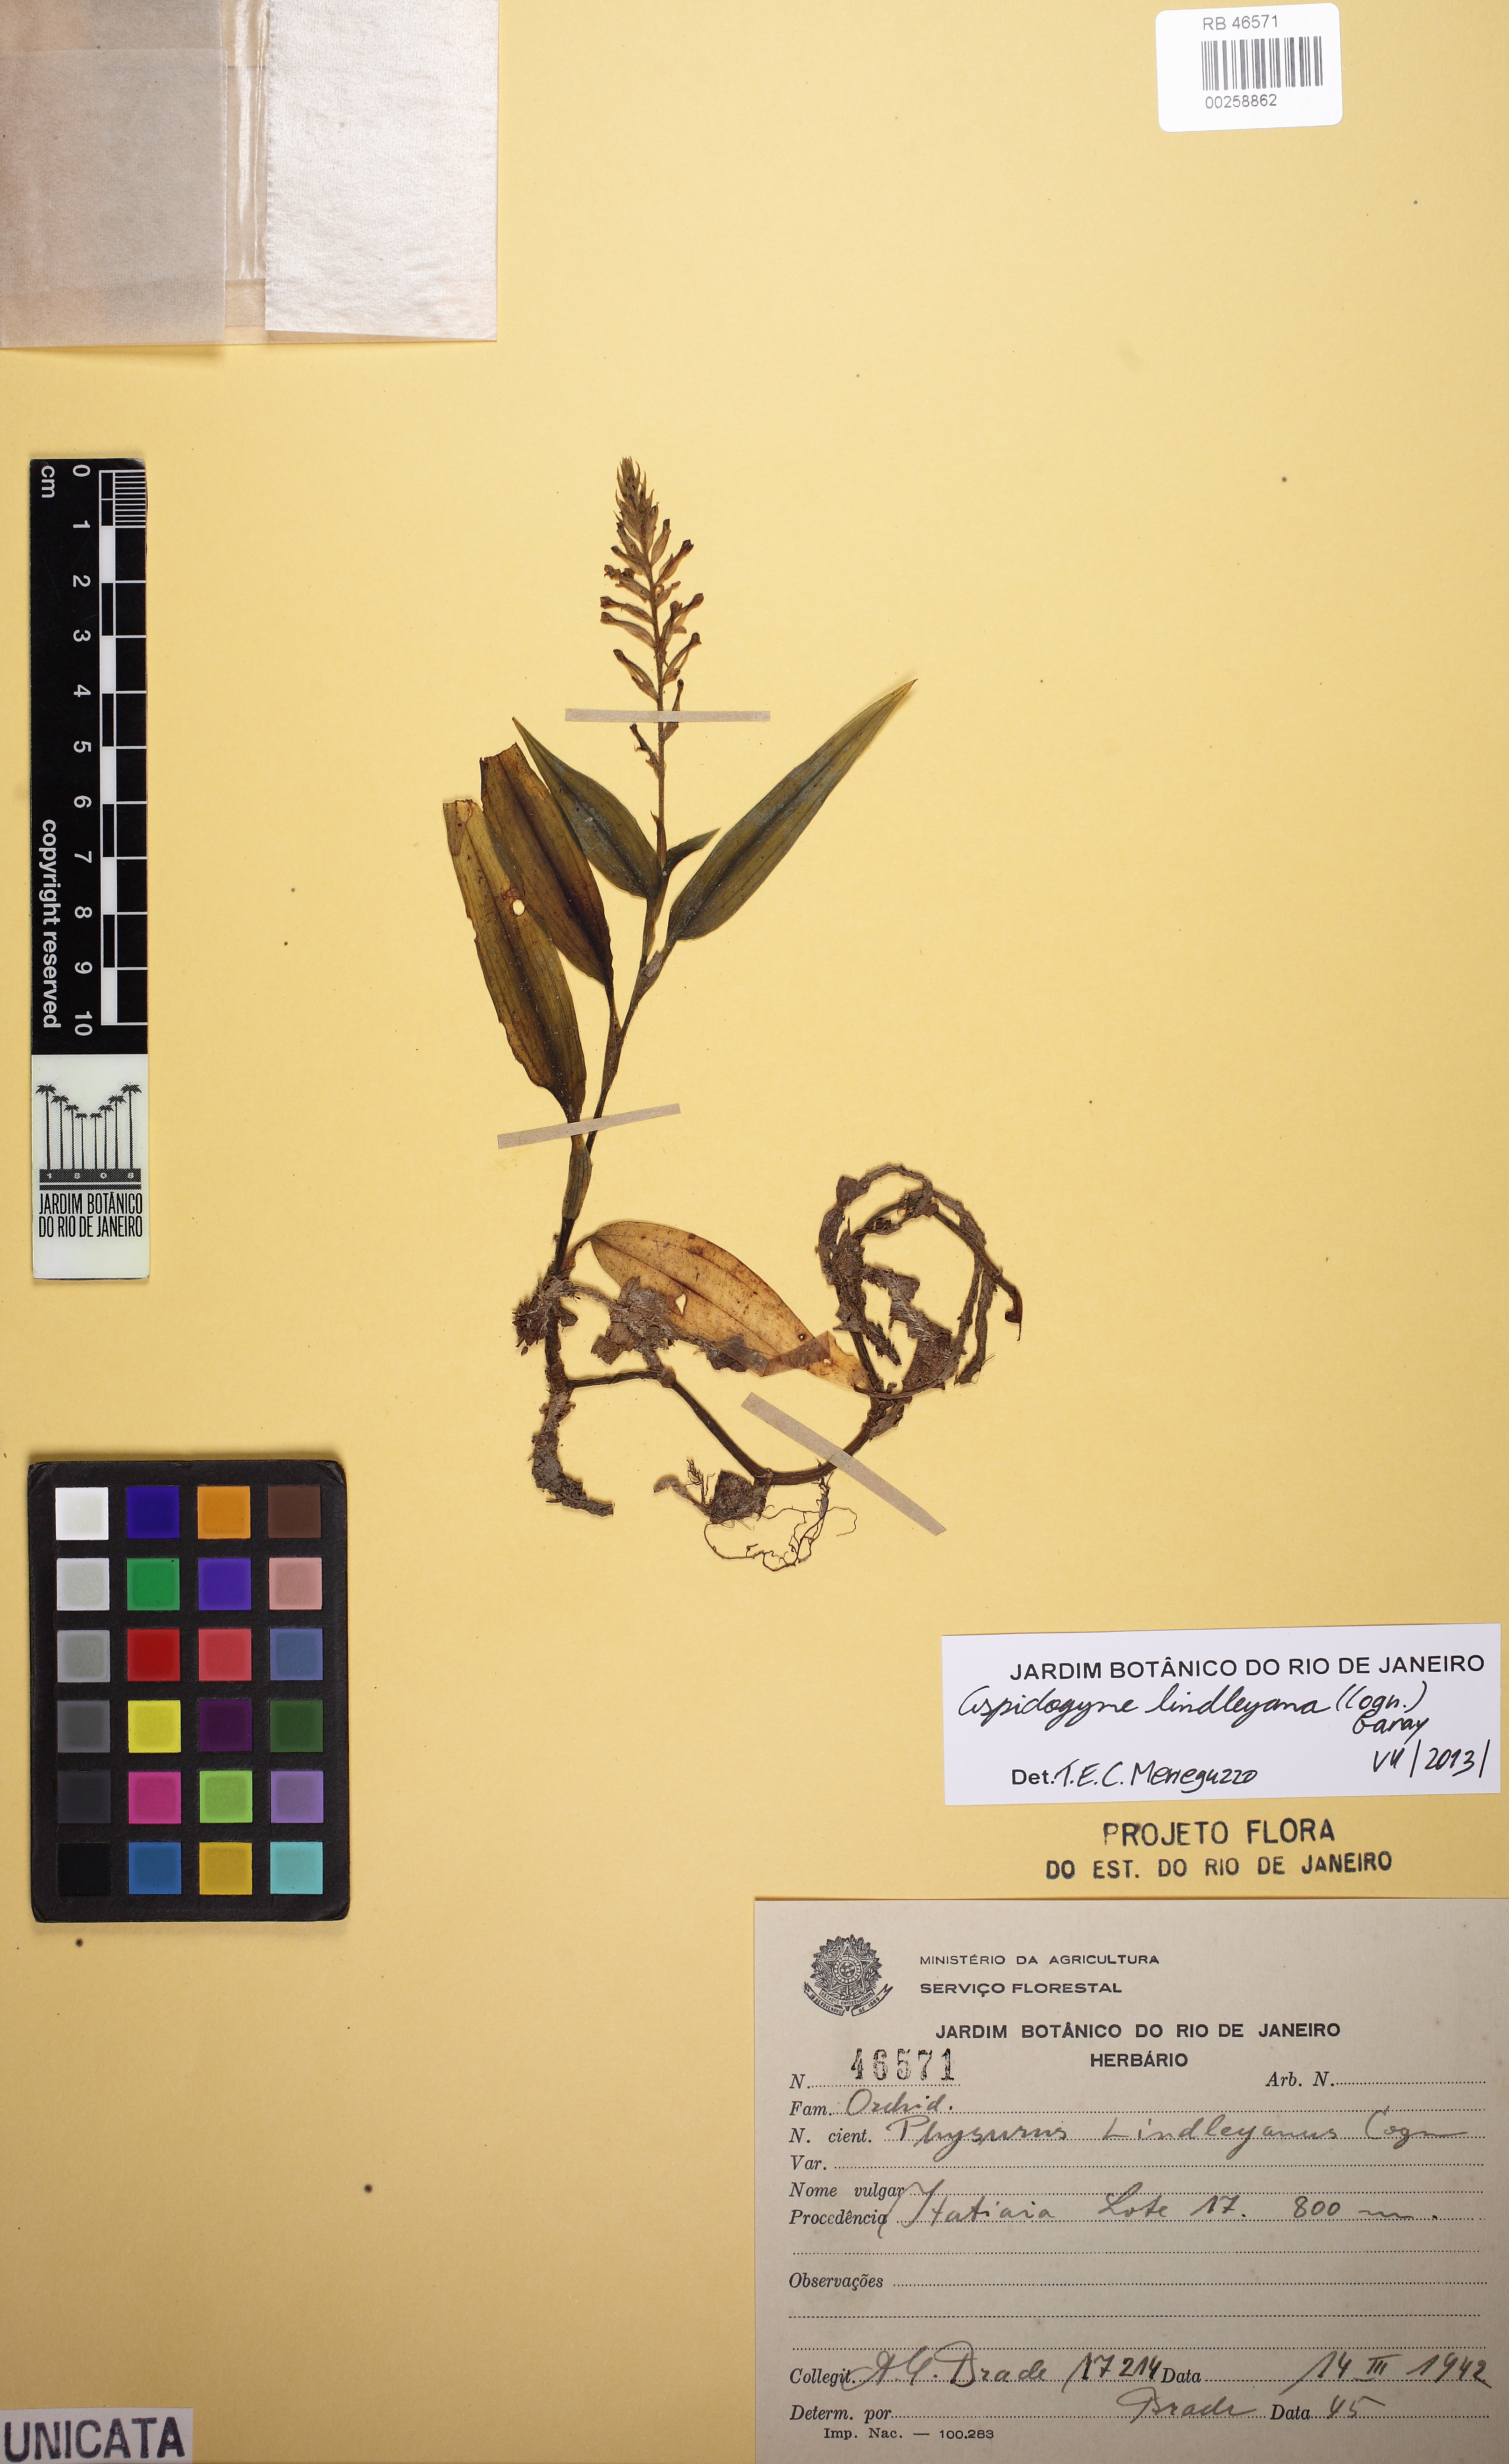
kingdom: Plantae
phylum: Tracheophyta
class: Liliopsida
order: Asparagales
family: Orchidaceae
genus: Aspidogyne
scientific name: Aspidogyne lindleyana
